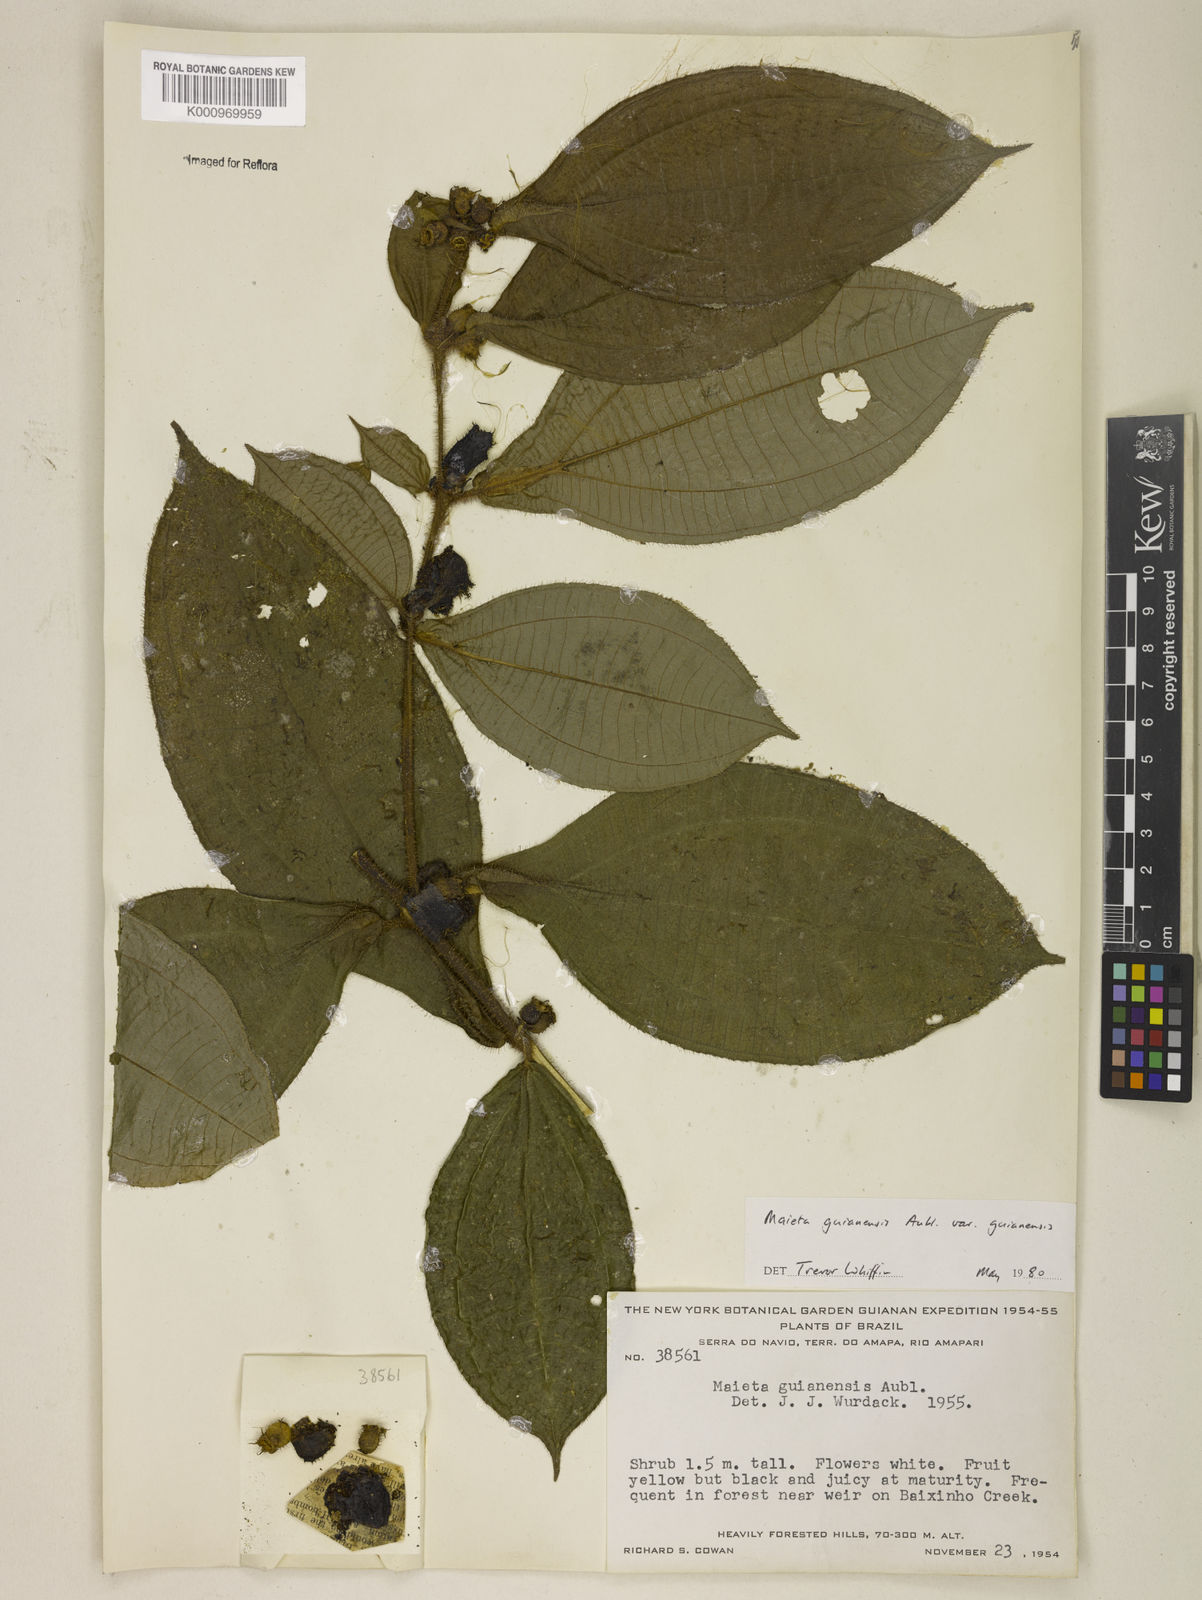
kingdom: Plantae
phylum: Tracheophyta
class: Magnoliopsida
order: Myrtales
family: Melastomataceae
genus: Miconia
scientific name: Miconia mayeta
